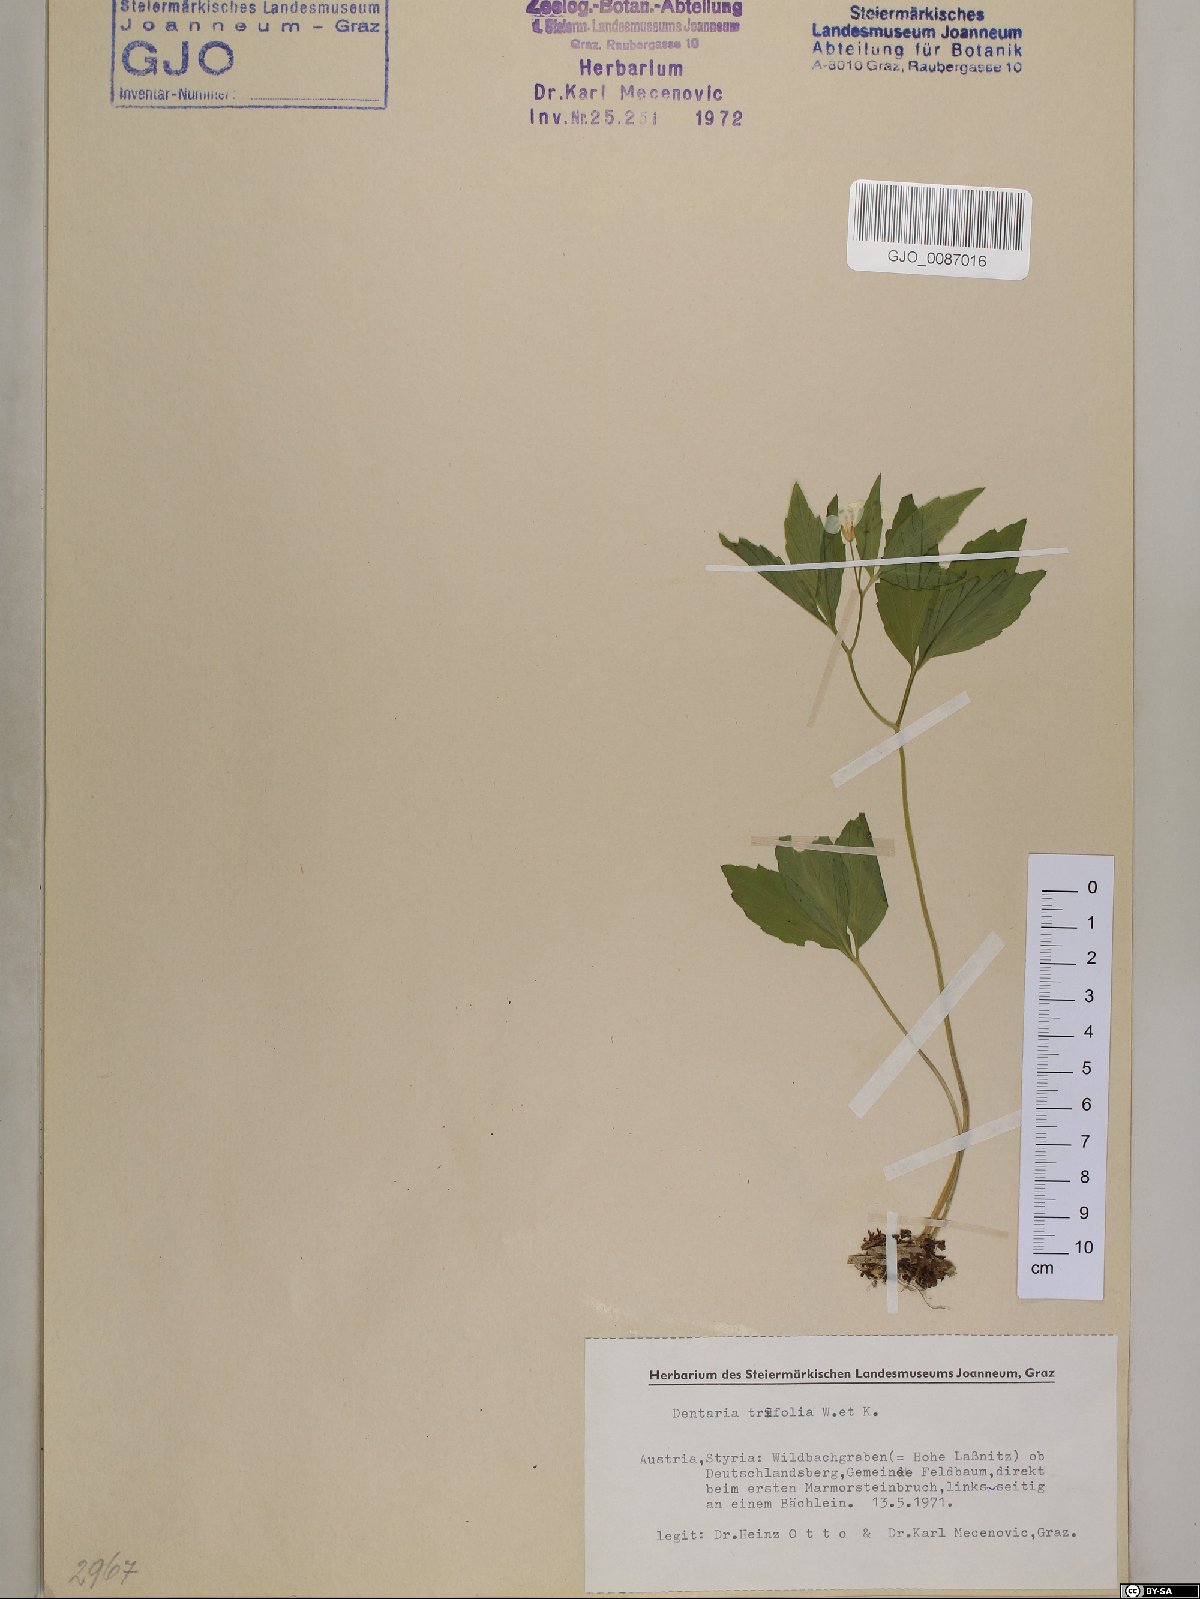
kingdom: Plantae
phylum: Tracheophyta
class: Magnoliopsida
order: Brassicales
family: Brassicaceae
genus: Cardamine
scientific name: Cardamine waldsteinii
